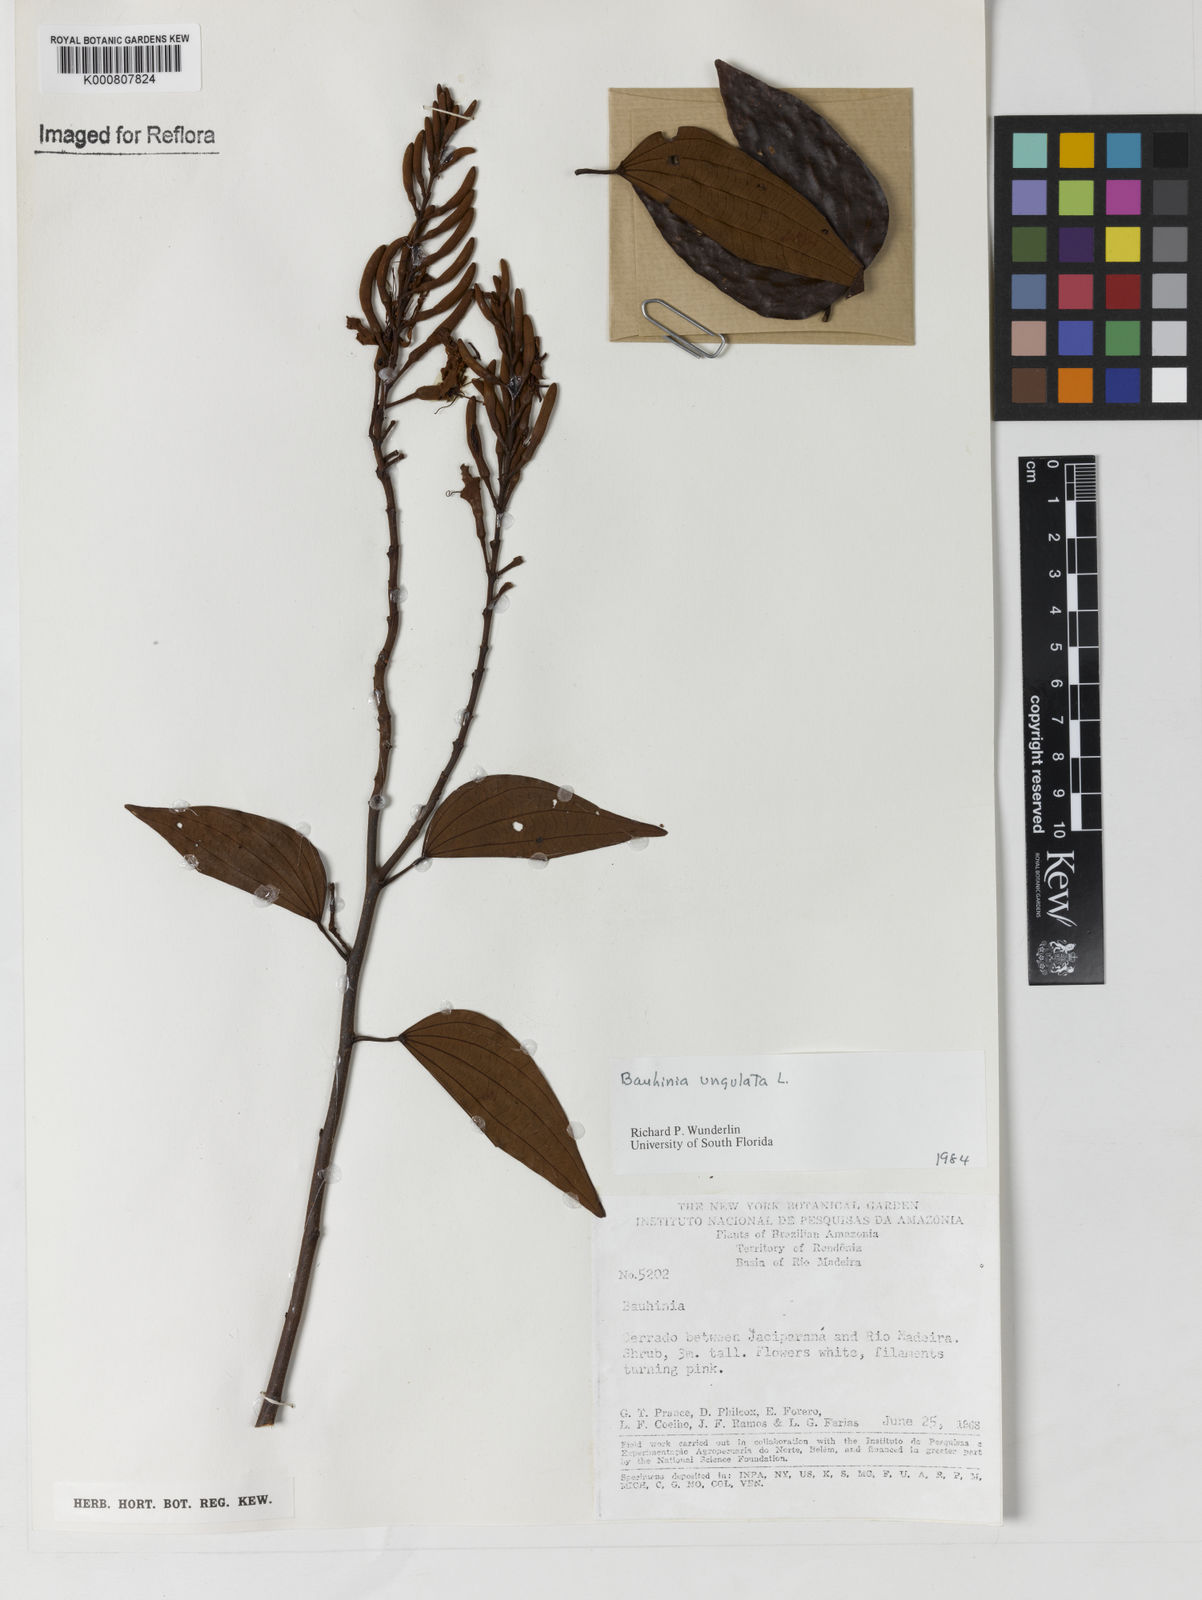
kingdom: Plantae
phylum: Tracheophyta
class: Magnoliopsida
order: Fabales
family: Fabaceae
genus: Bauhinia
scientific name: Bauhinia ungulata
